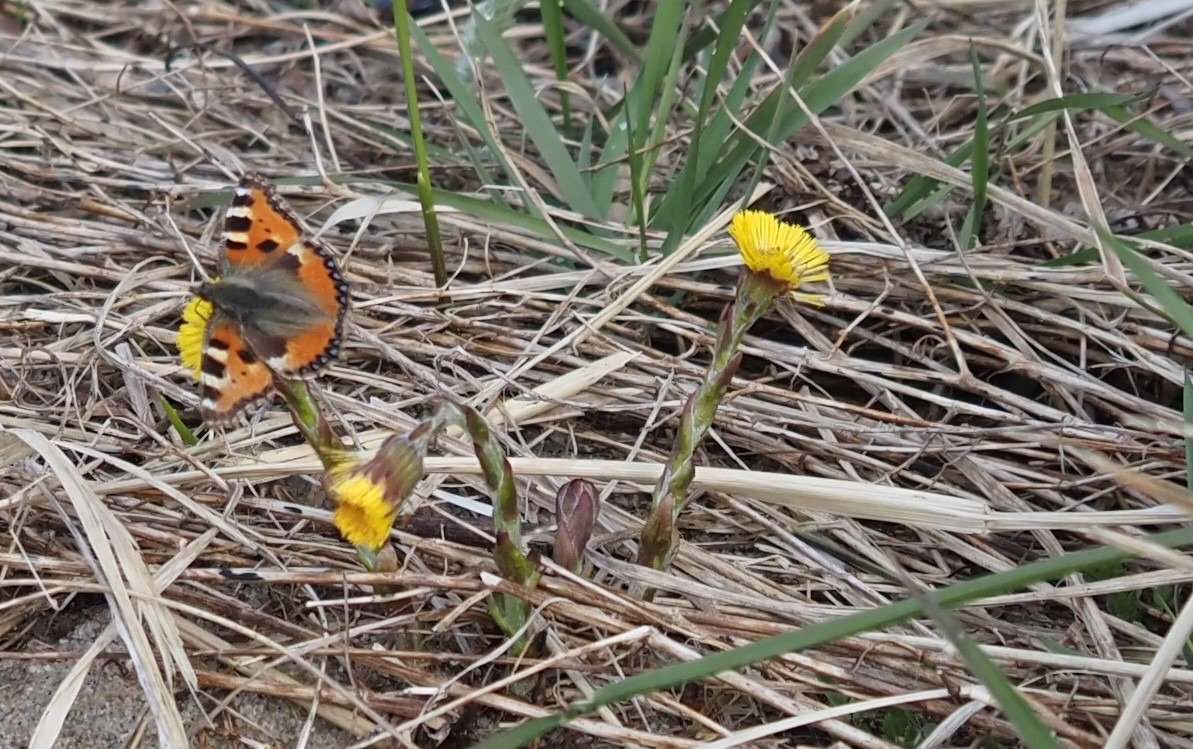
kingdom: Animalia
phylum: Arthropoda
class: Insecta
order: Lepidoptera
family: Nymphalidae
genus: Aglais
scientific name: Aglais urticae
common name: Nældens takvinge
